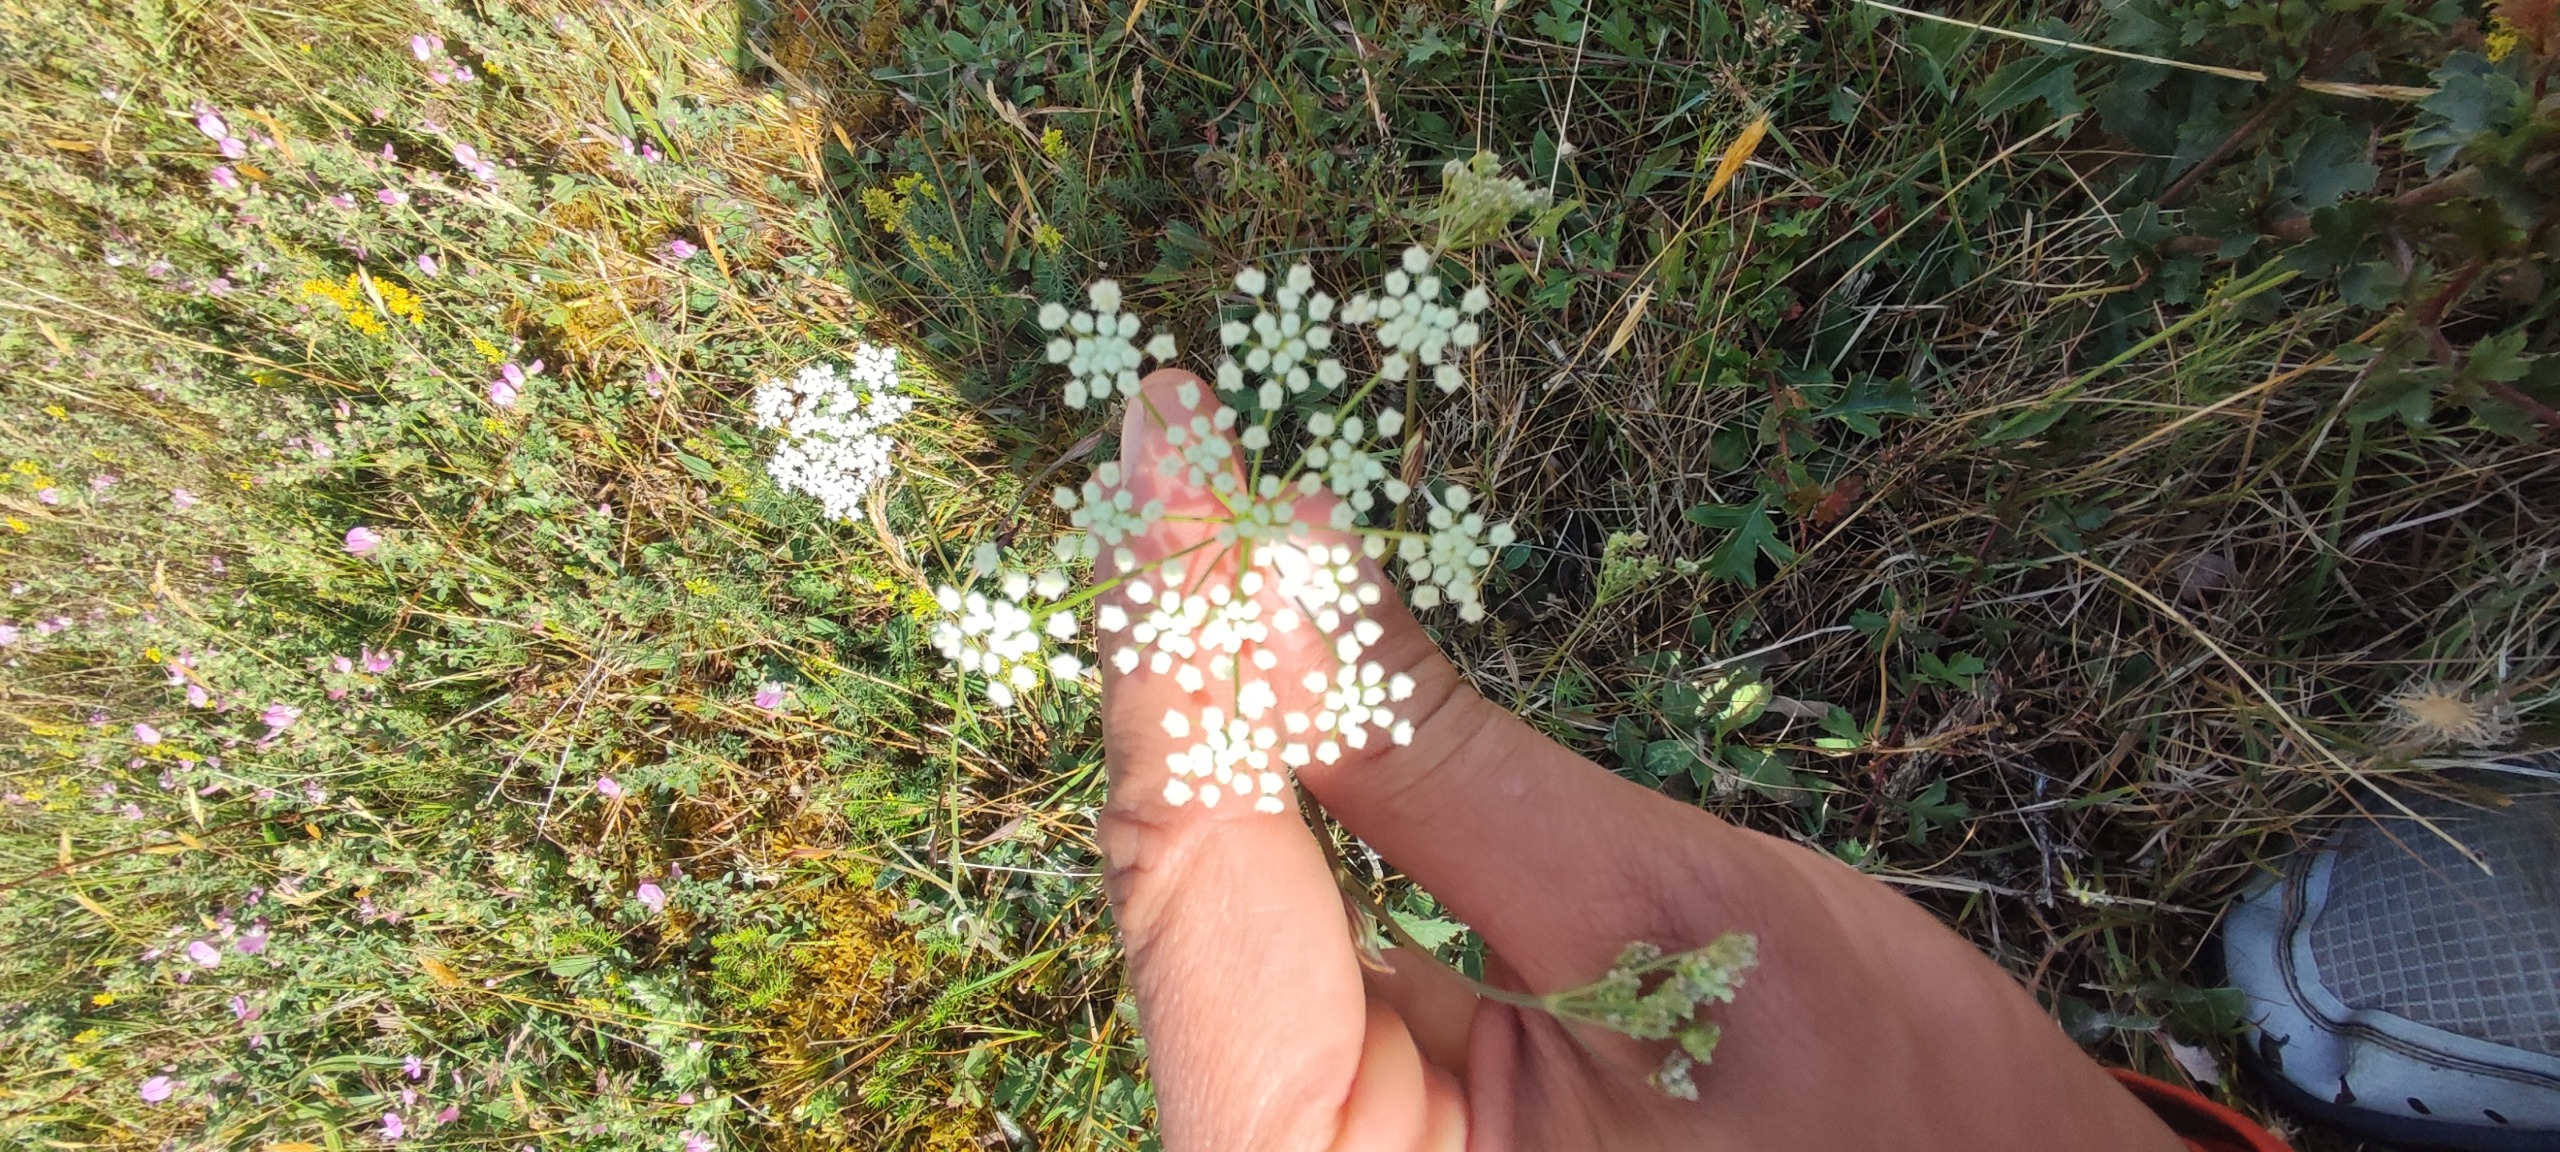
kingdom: Plantae
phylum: Tracheophyta
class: Magnoliopsida
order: Apiales
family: Apiaceae
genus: Pimpinella
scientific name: Pimpinella saxifraga
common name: Almindelig pimpinelle
